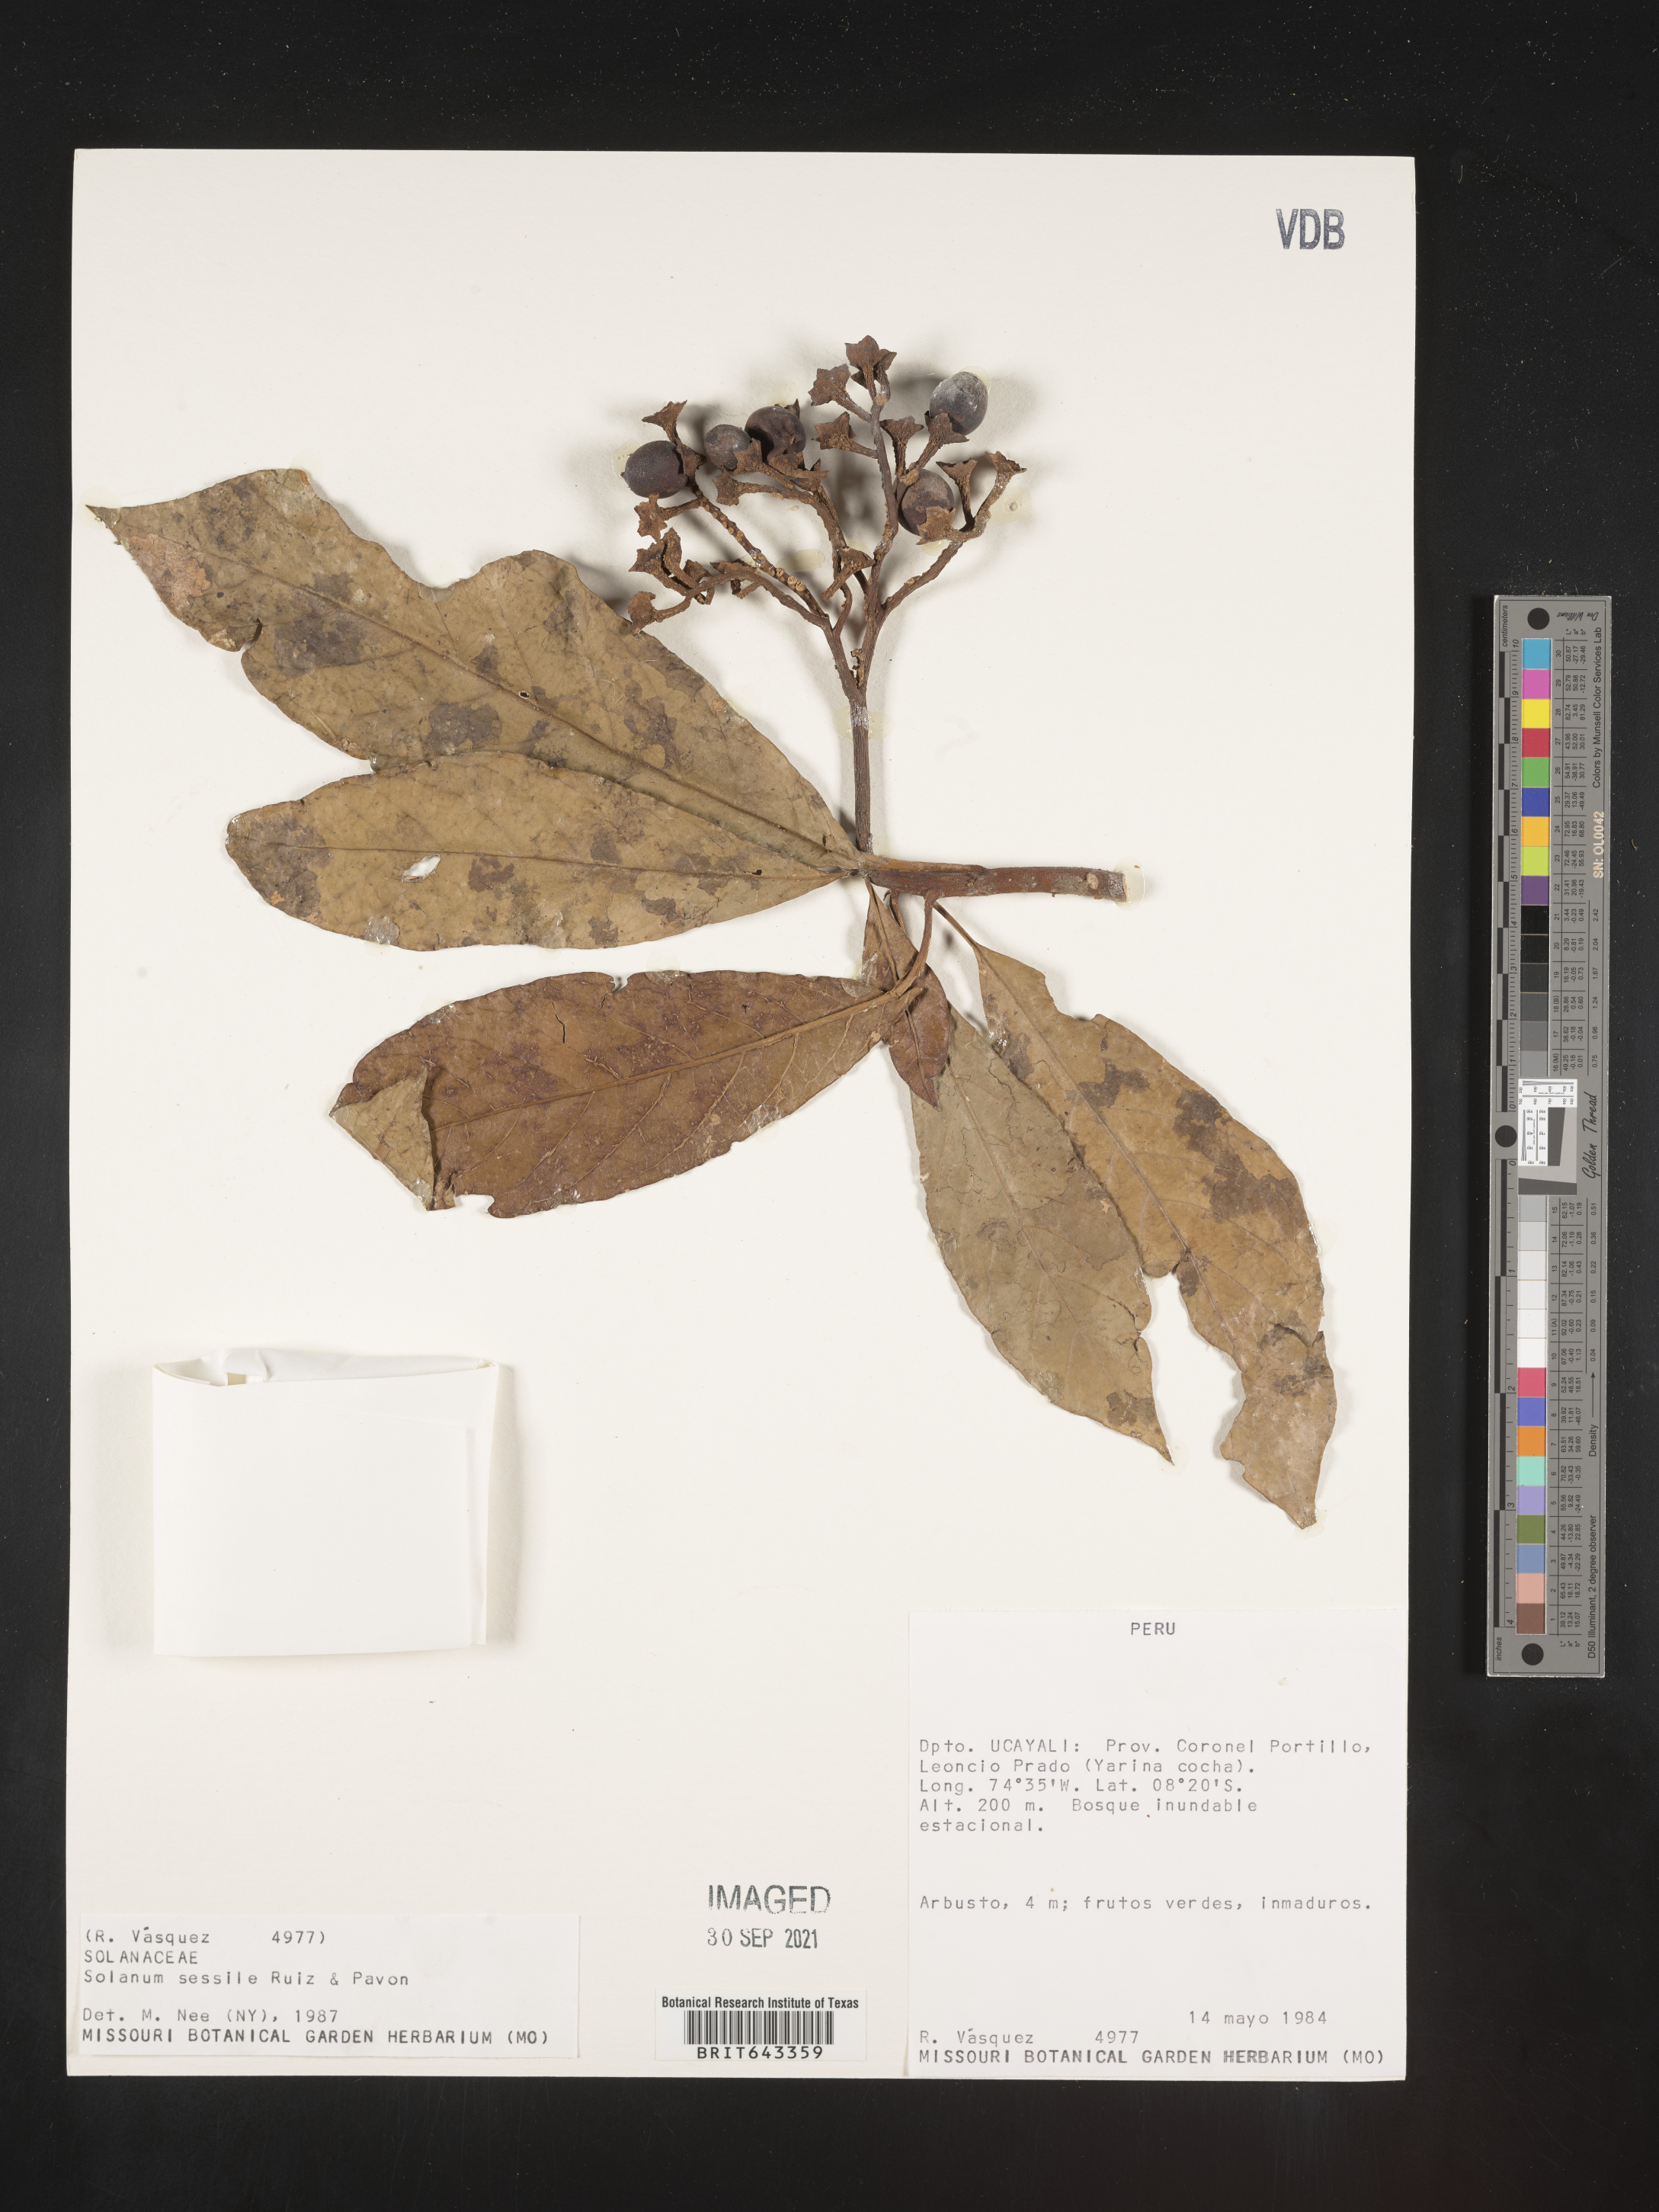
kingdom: Plantae
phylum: Tracheophyta
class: Magnoliopsida
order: Solanales
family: Solanaceae
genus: Solanum
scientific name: Solanum
